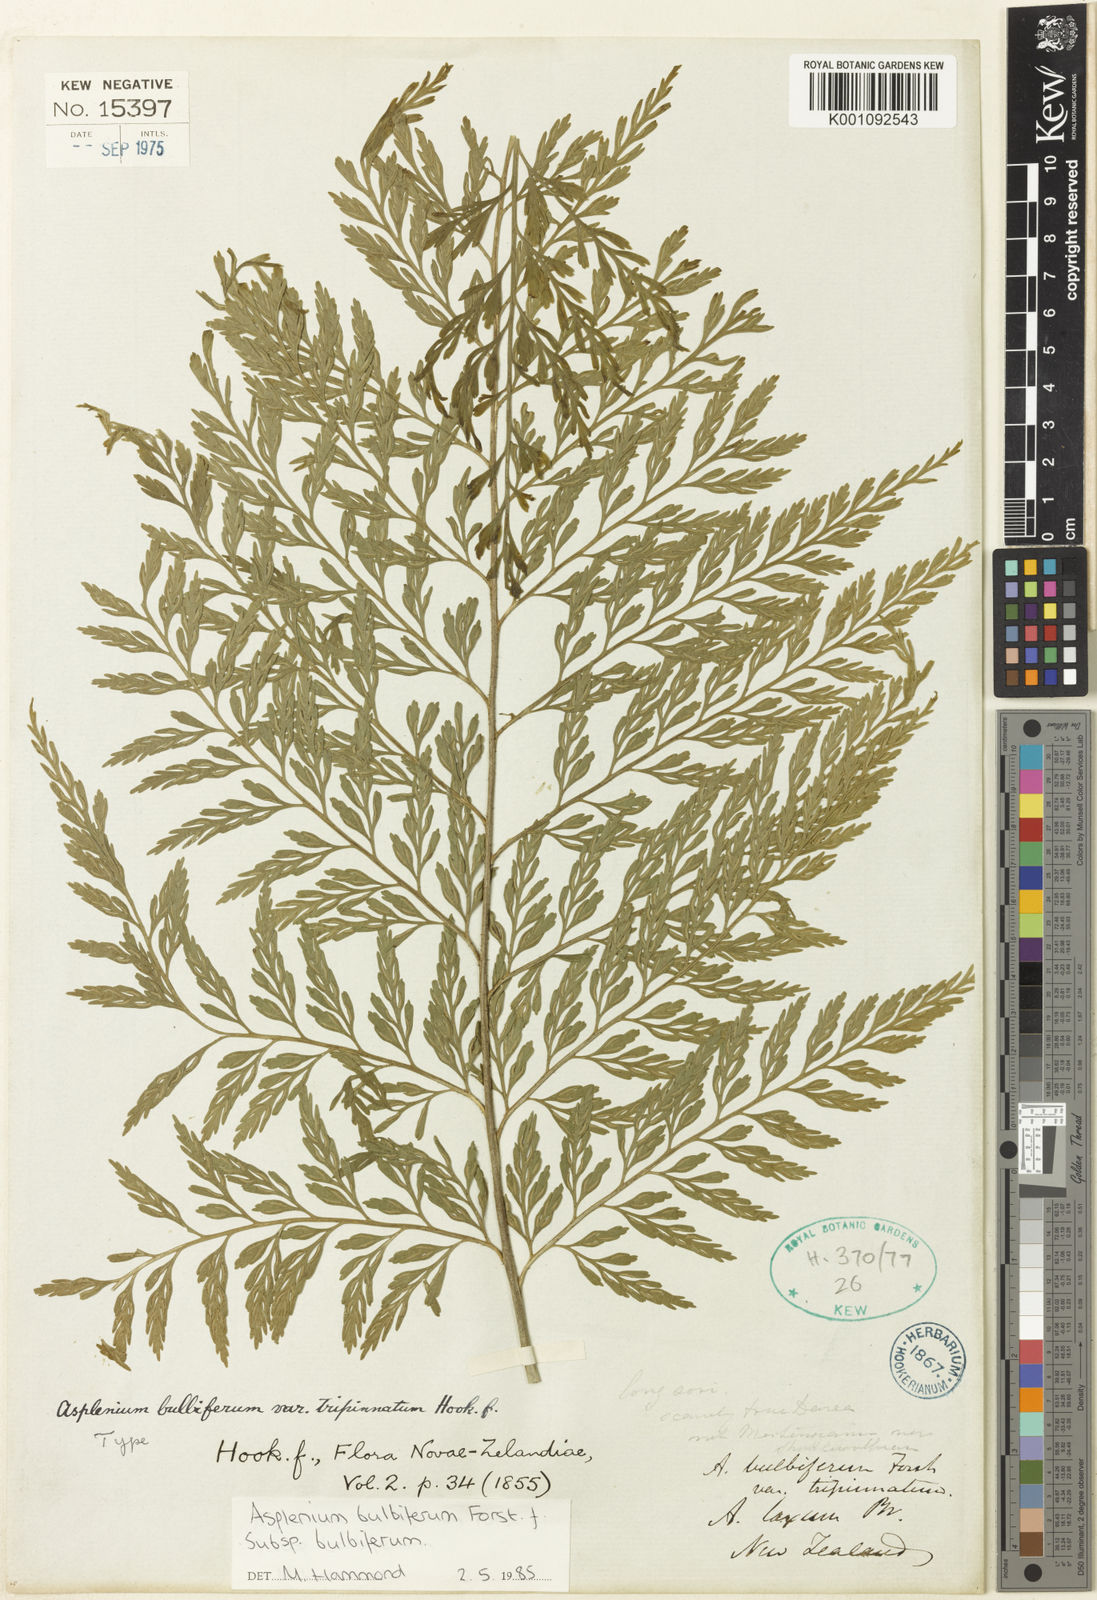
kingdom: Plantae
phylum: Tracheophyta
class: Polypodiopsida
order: Polypodiales
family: Aspleniaceae
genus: Asplenium
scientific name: Asplenium bulbiferum
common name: Mother fern
